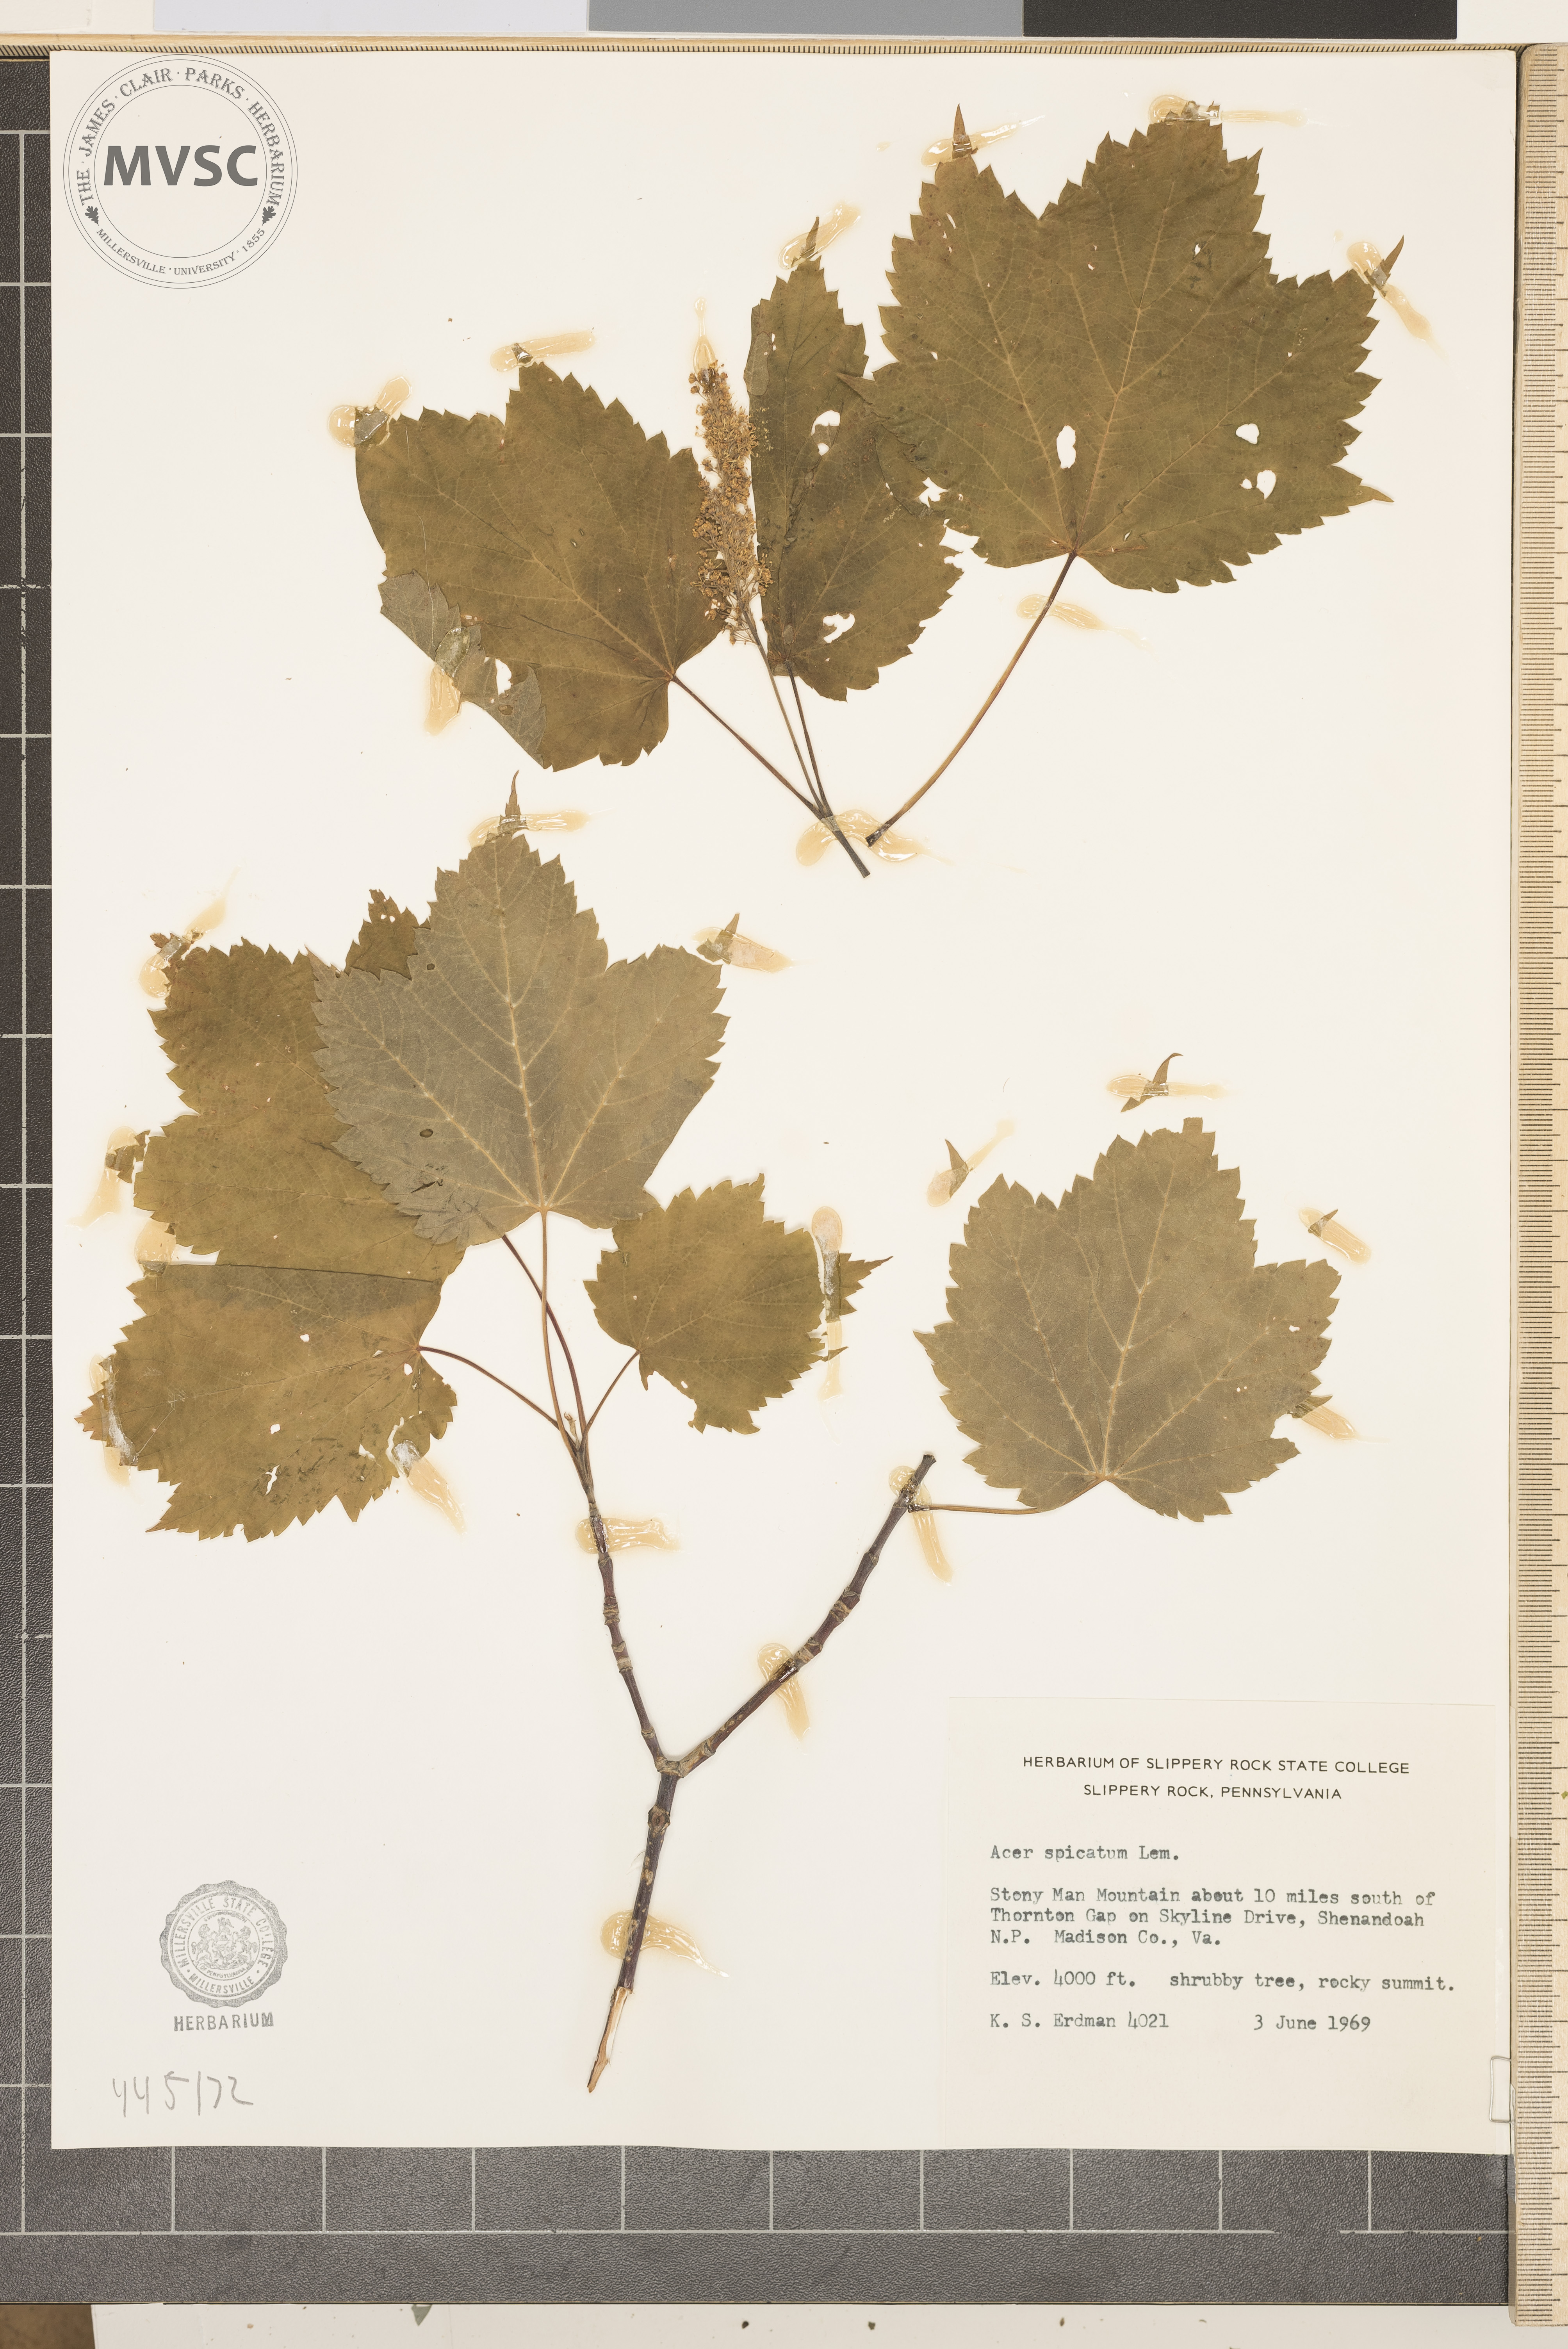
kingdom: Plantae
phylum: Tracheophyta
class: Magnoliopsida
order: Sapindales
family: Sapindaceae
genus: Acer
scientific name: Acer spicatum
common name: Mountain maple
